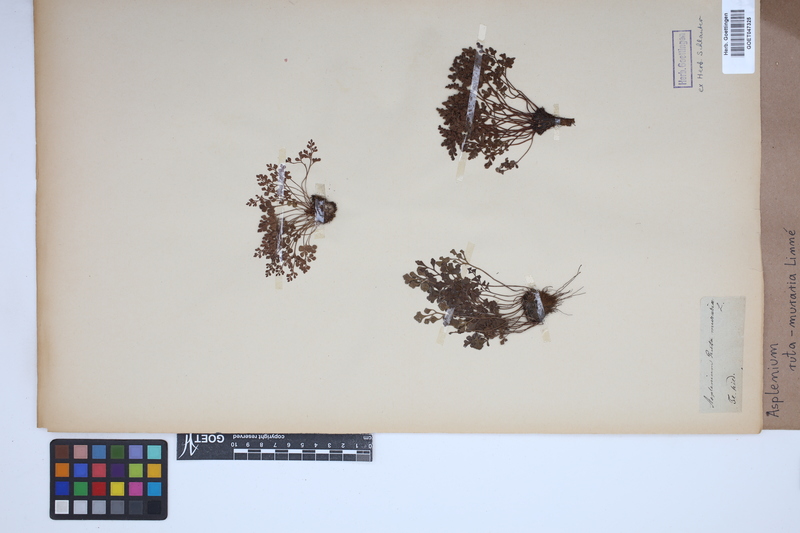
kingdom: Plantae
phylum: Tracheophyta
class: Polypodiopsida
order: Polypodiales
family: Aspleniaceae
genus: Asplenium
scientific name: Asplenium ruta-muraria
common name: Wall-rue
